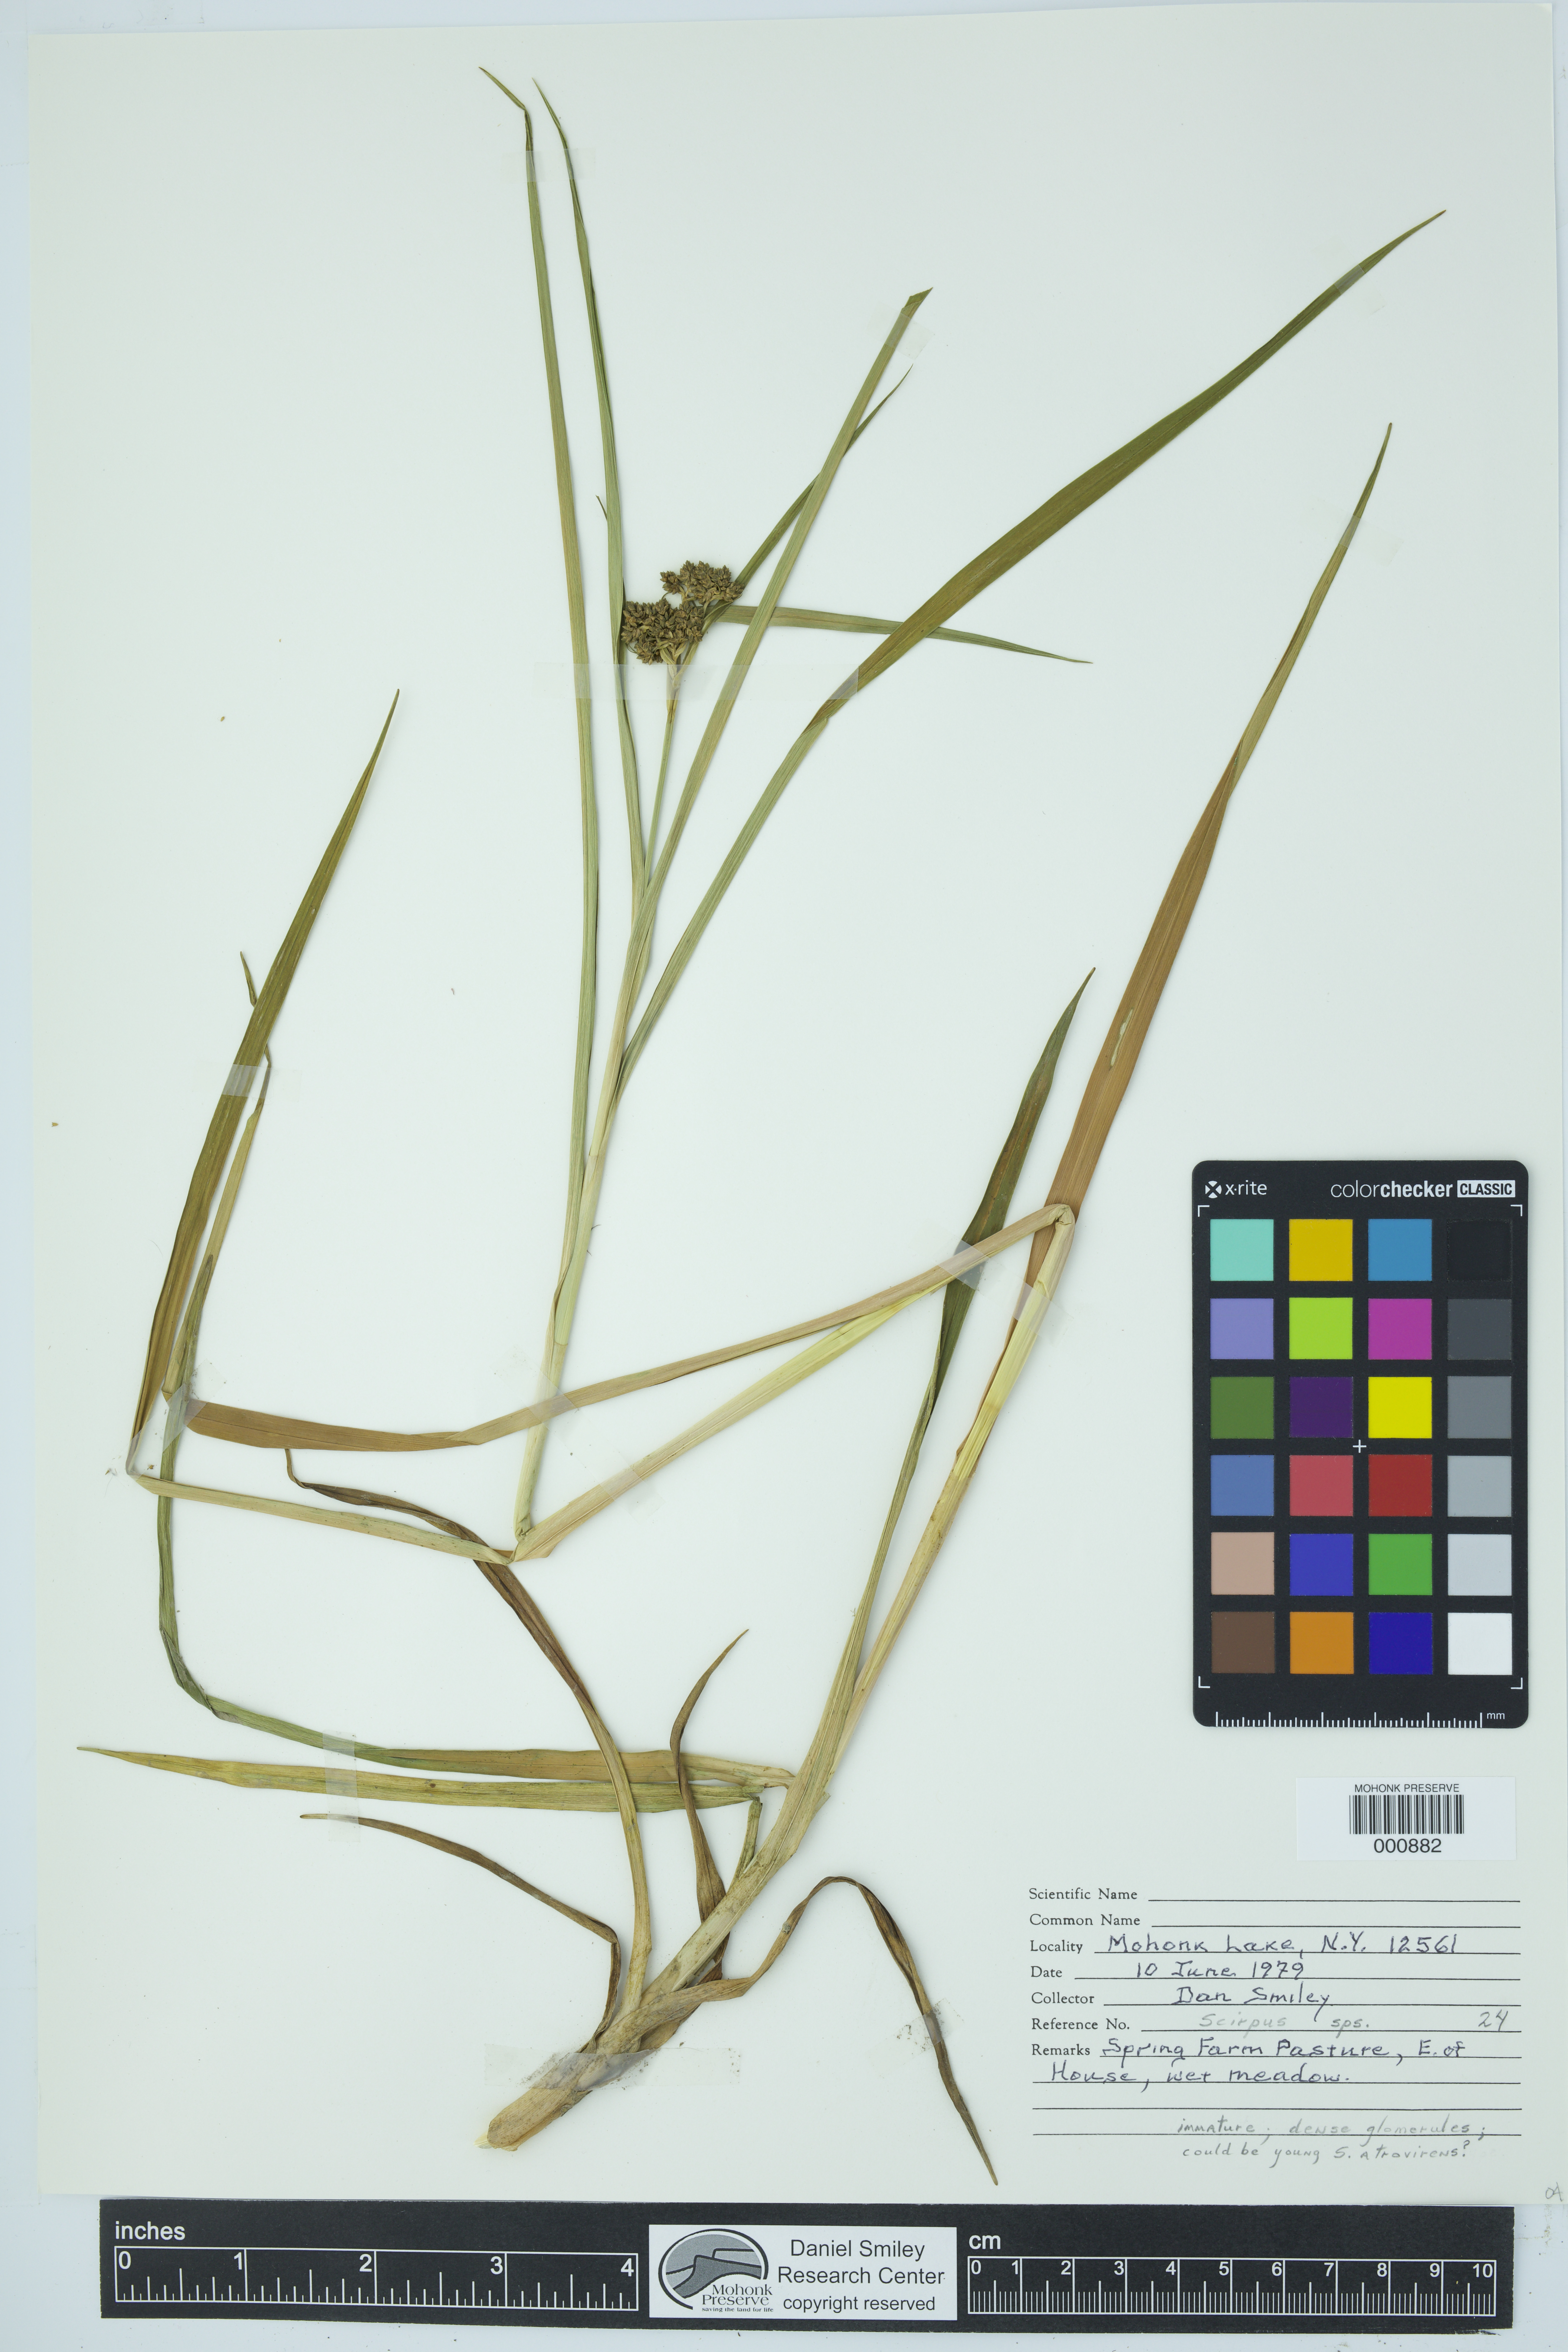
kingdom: Plantae
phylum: Tracheophyta
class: Liliopsida
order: Poales
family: Cyperaceae
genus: Scirpus
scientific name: Scirpus
